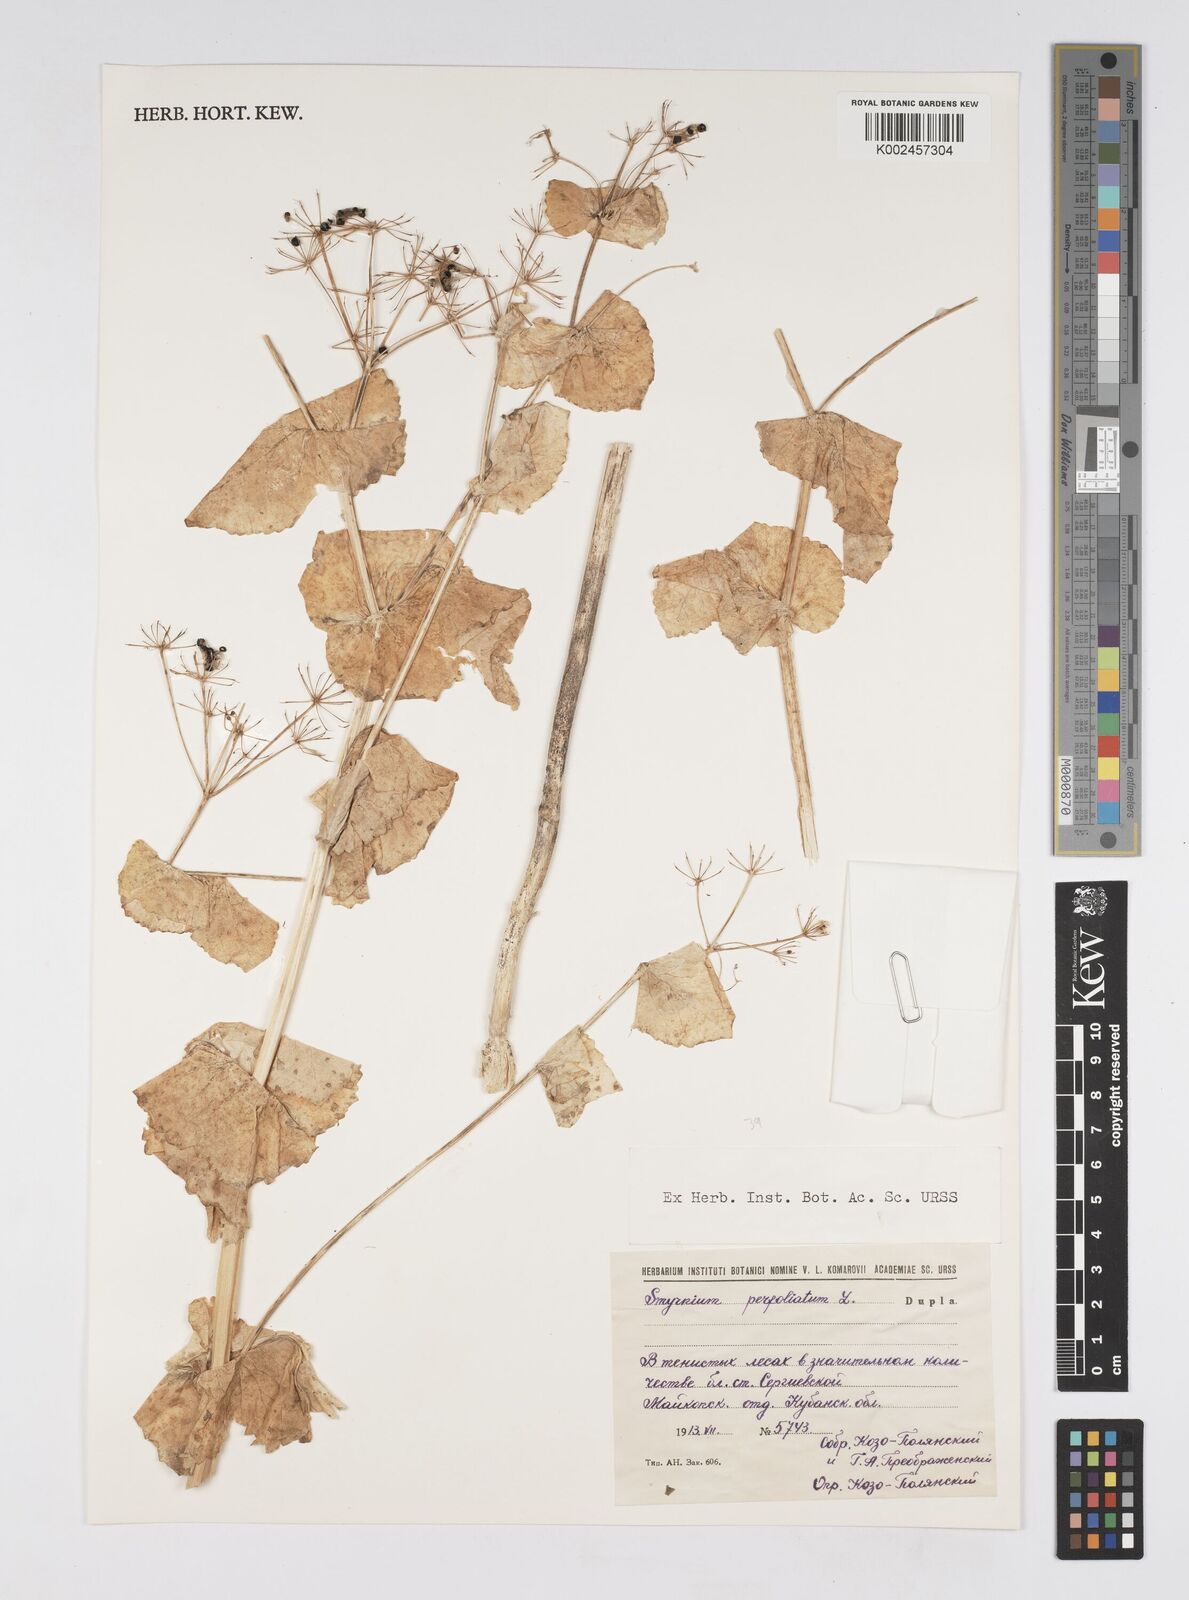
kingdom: Plantae
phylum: Tracheophyta
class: Magnoliopsida
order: Apiales
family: Apiaceae
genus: Smyrnium
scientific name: Smyrnium perfoliatum
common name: Perfoliate alexanders
